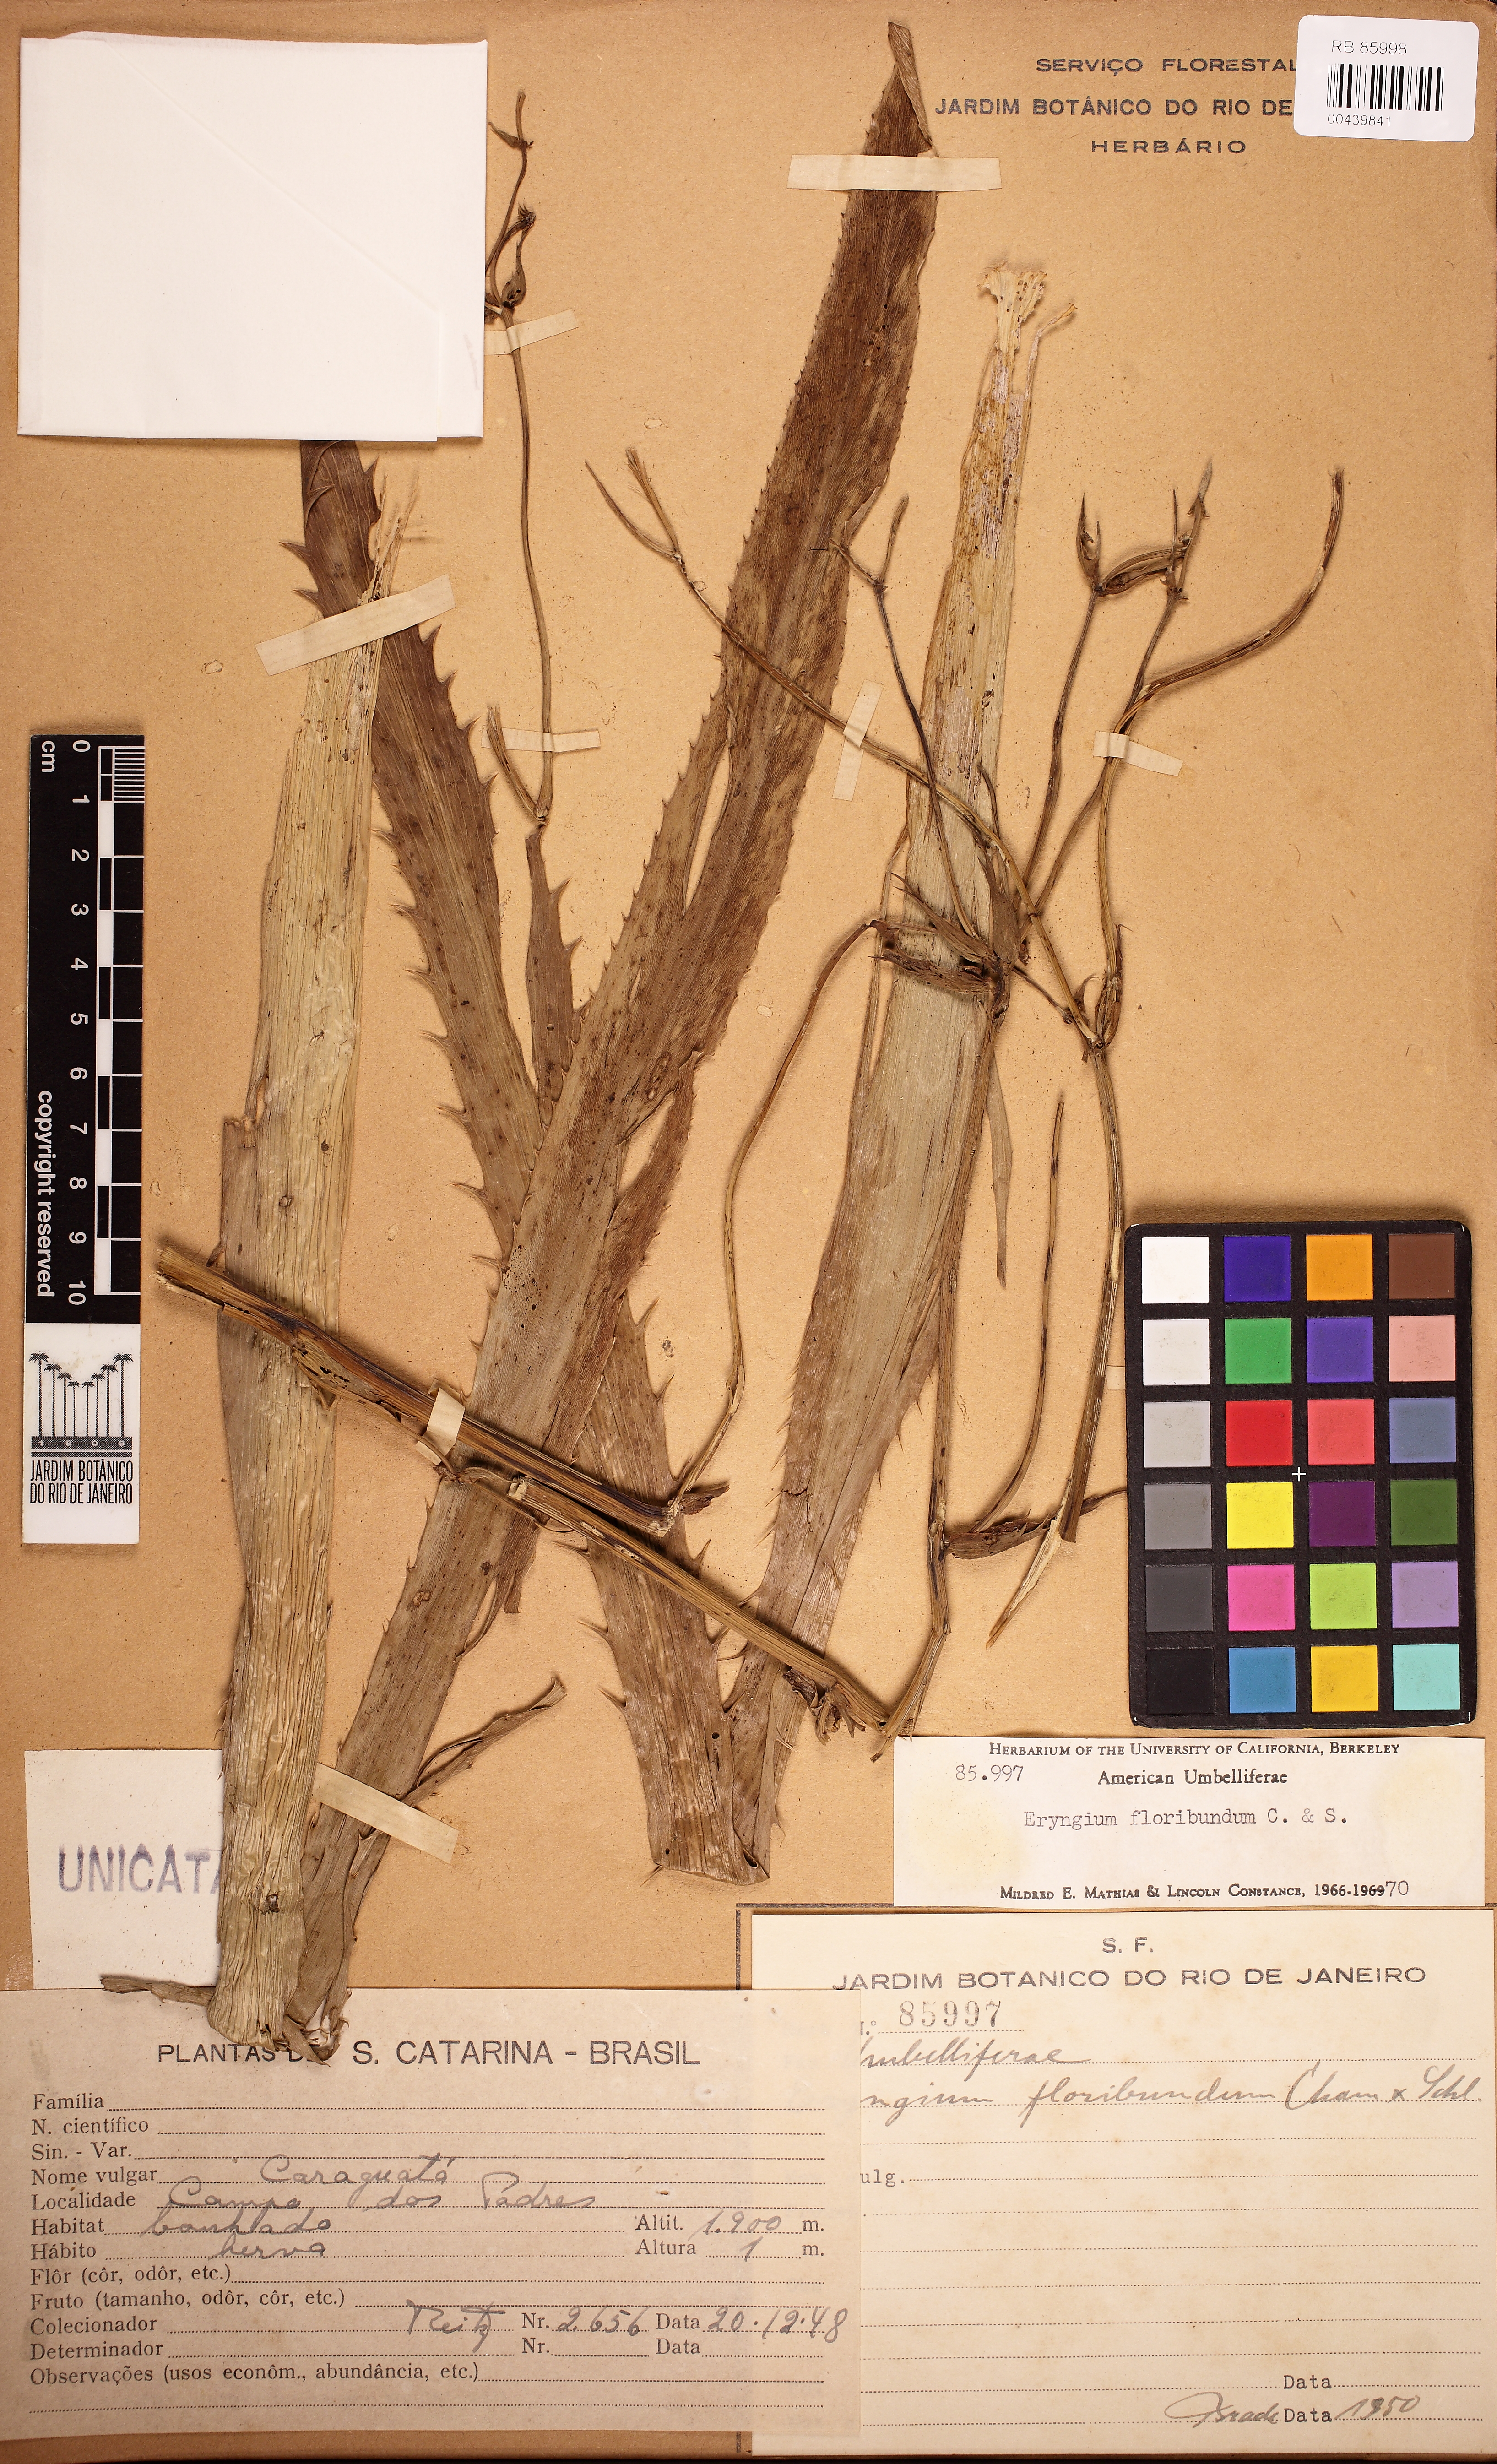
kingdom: Plantae
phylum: Tracheophyta
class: Magnoliopsida
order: Apiales
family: Apiaceae
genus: Eryngium
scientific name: Eryngium floribundum
